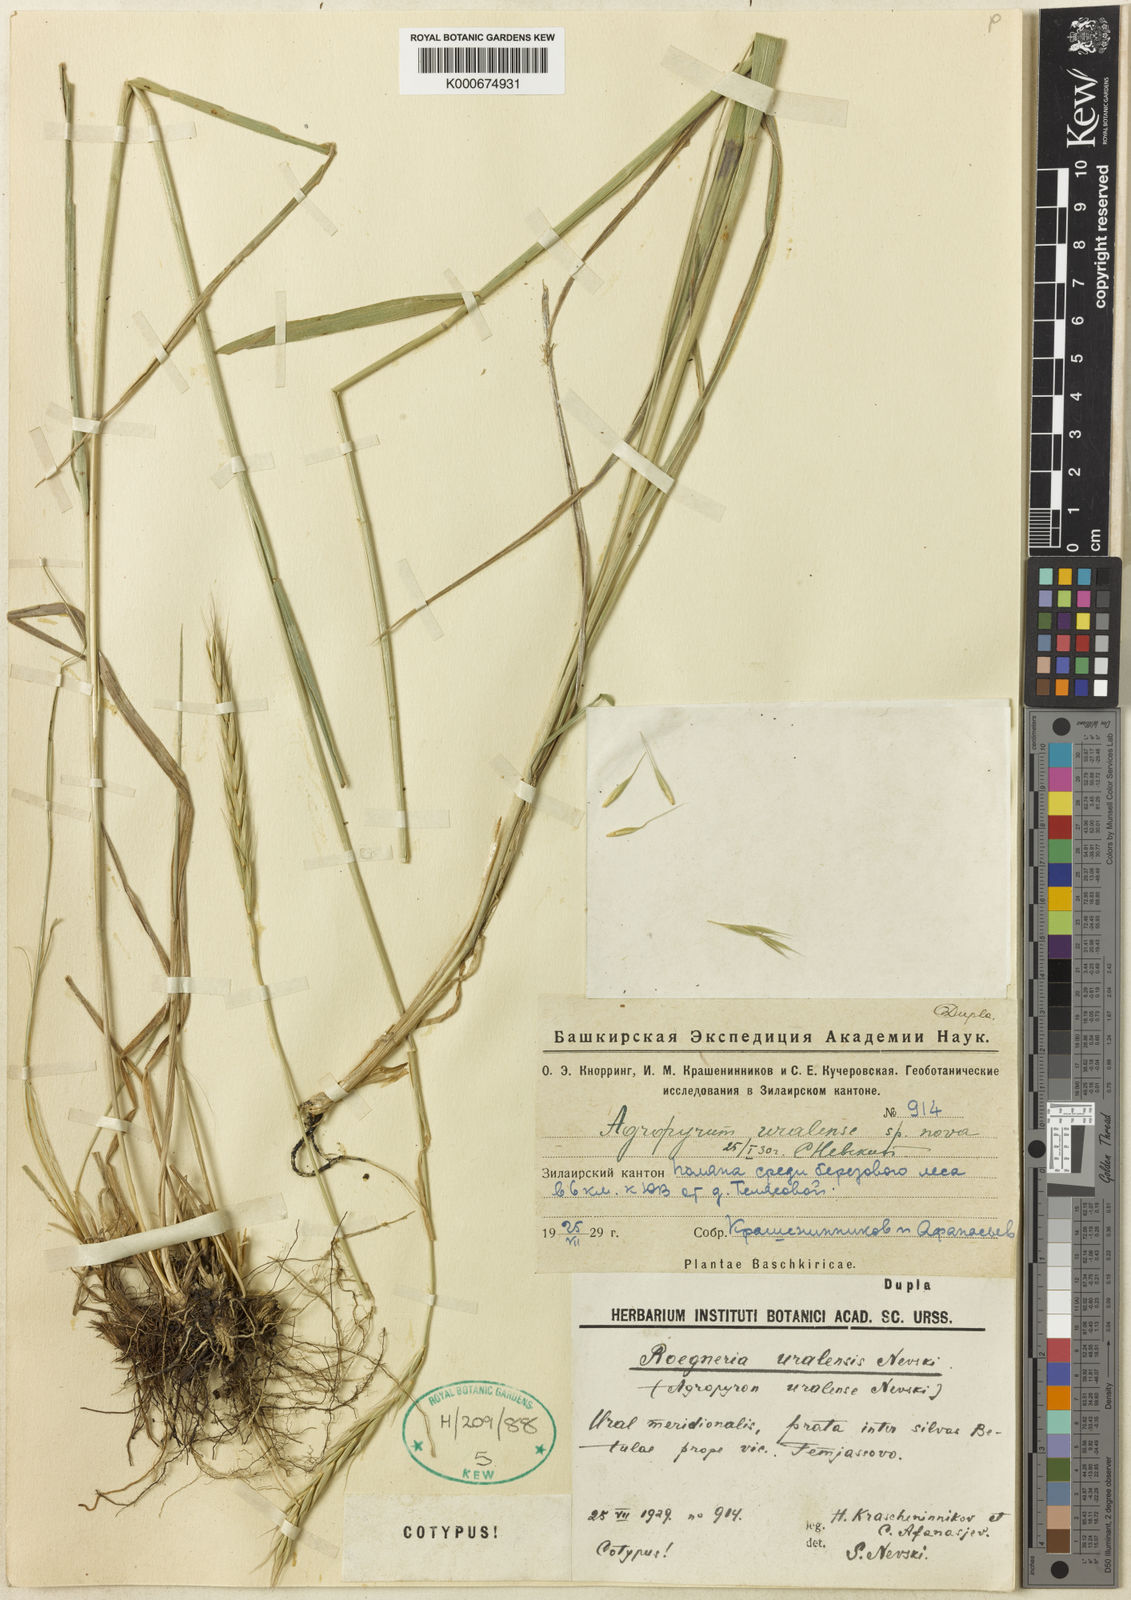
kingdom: Plantae
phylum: Tracheophyta
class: Liliopsida
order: Poales
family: Poaceae
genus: Elymus
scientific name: Elymus uralensis
